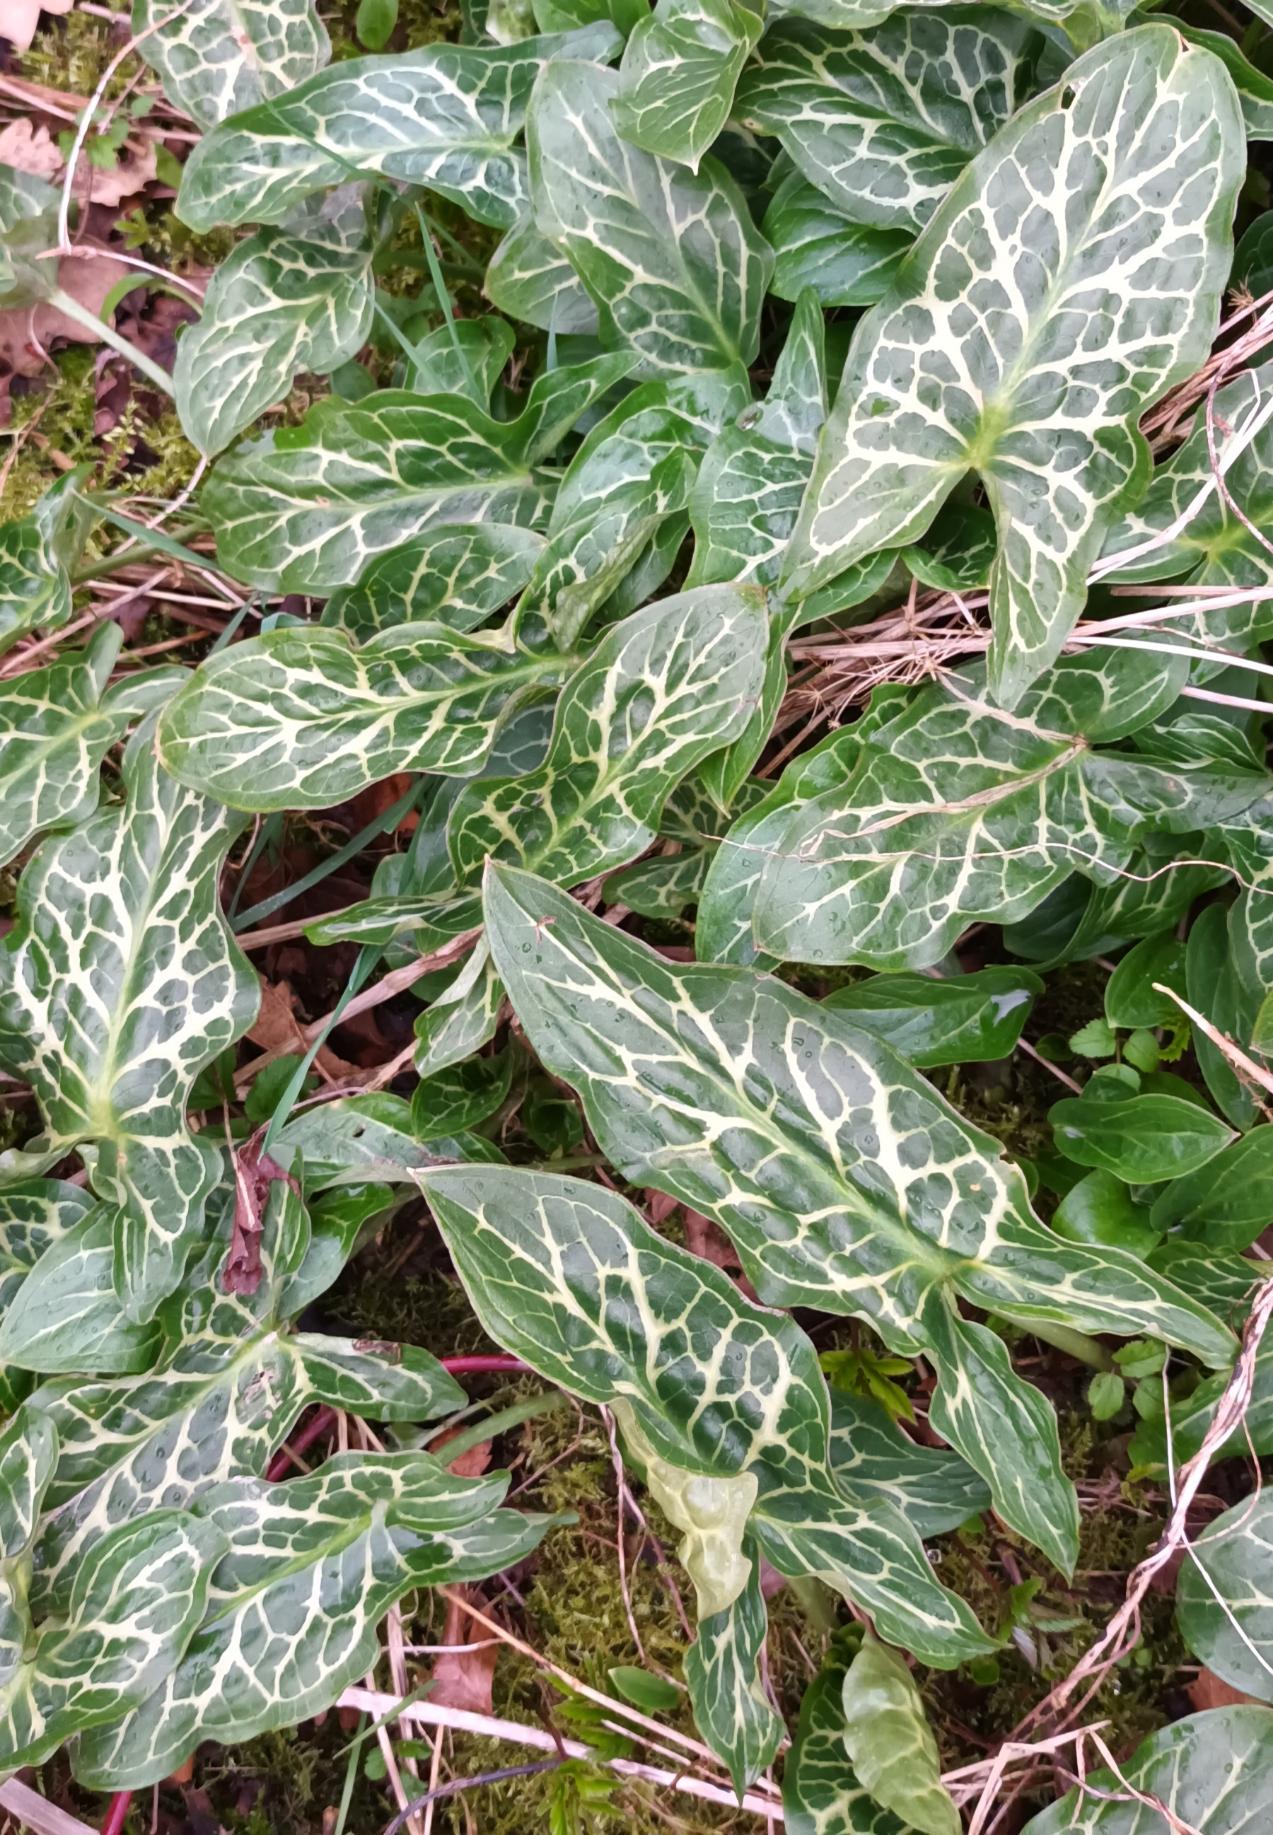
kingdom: Plantae
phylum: Tracheophyta
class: Liliopsida
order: Alismatales
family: Araceae
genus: Arum
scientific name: Arum italicum
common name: Italiensk arum
